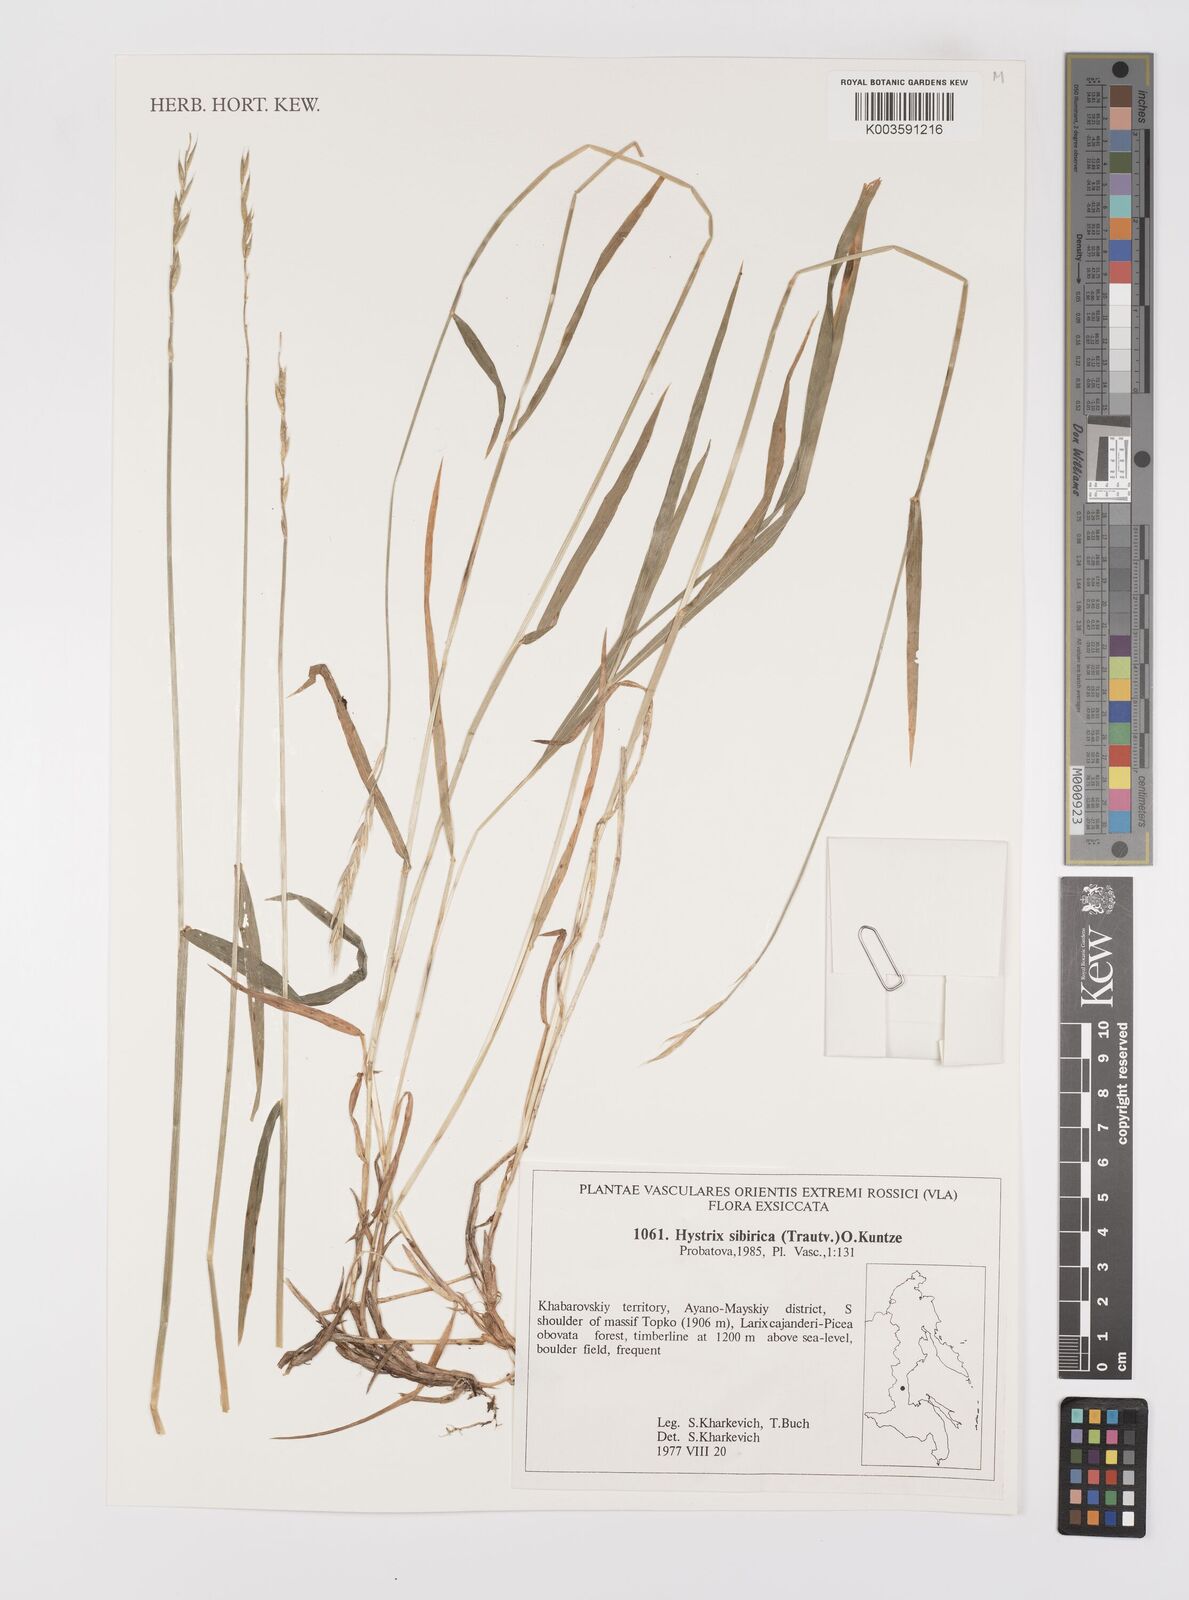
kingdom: Plantae
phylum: Tracheophyta
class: Liliopsida
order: Poales
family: Poaceae
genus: Leymus
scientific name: Leymus sibiricus
